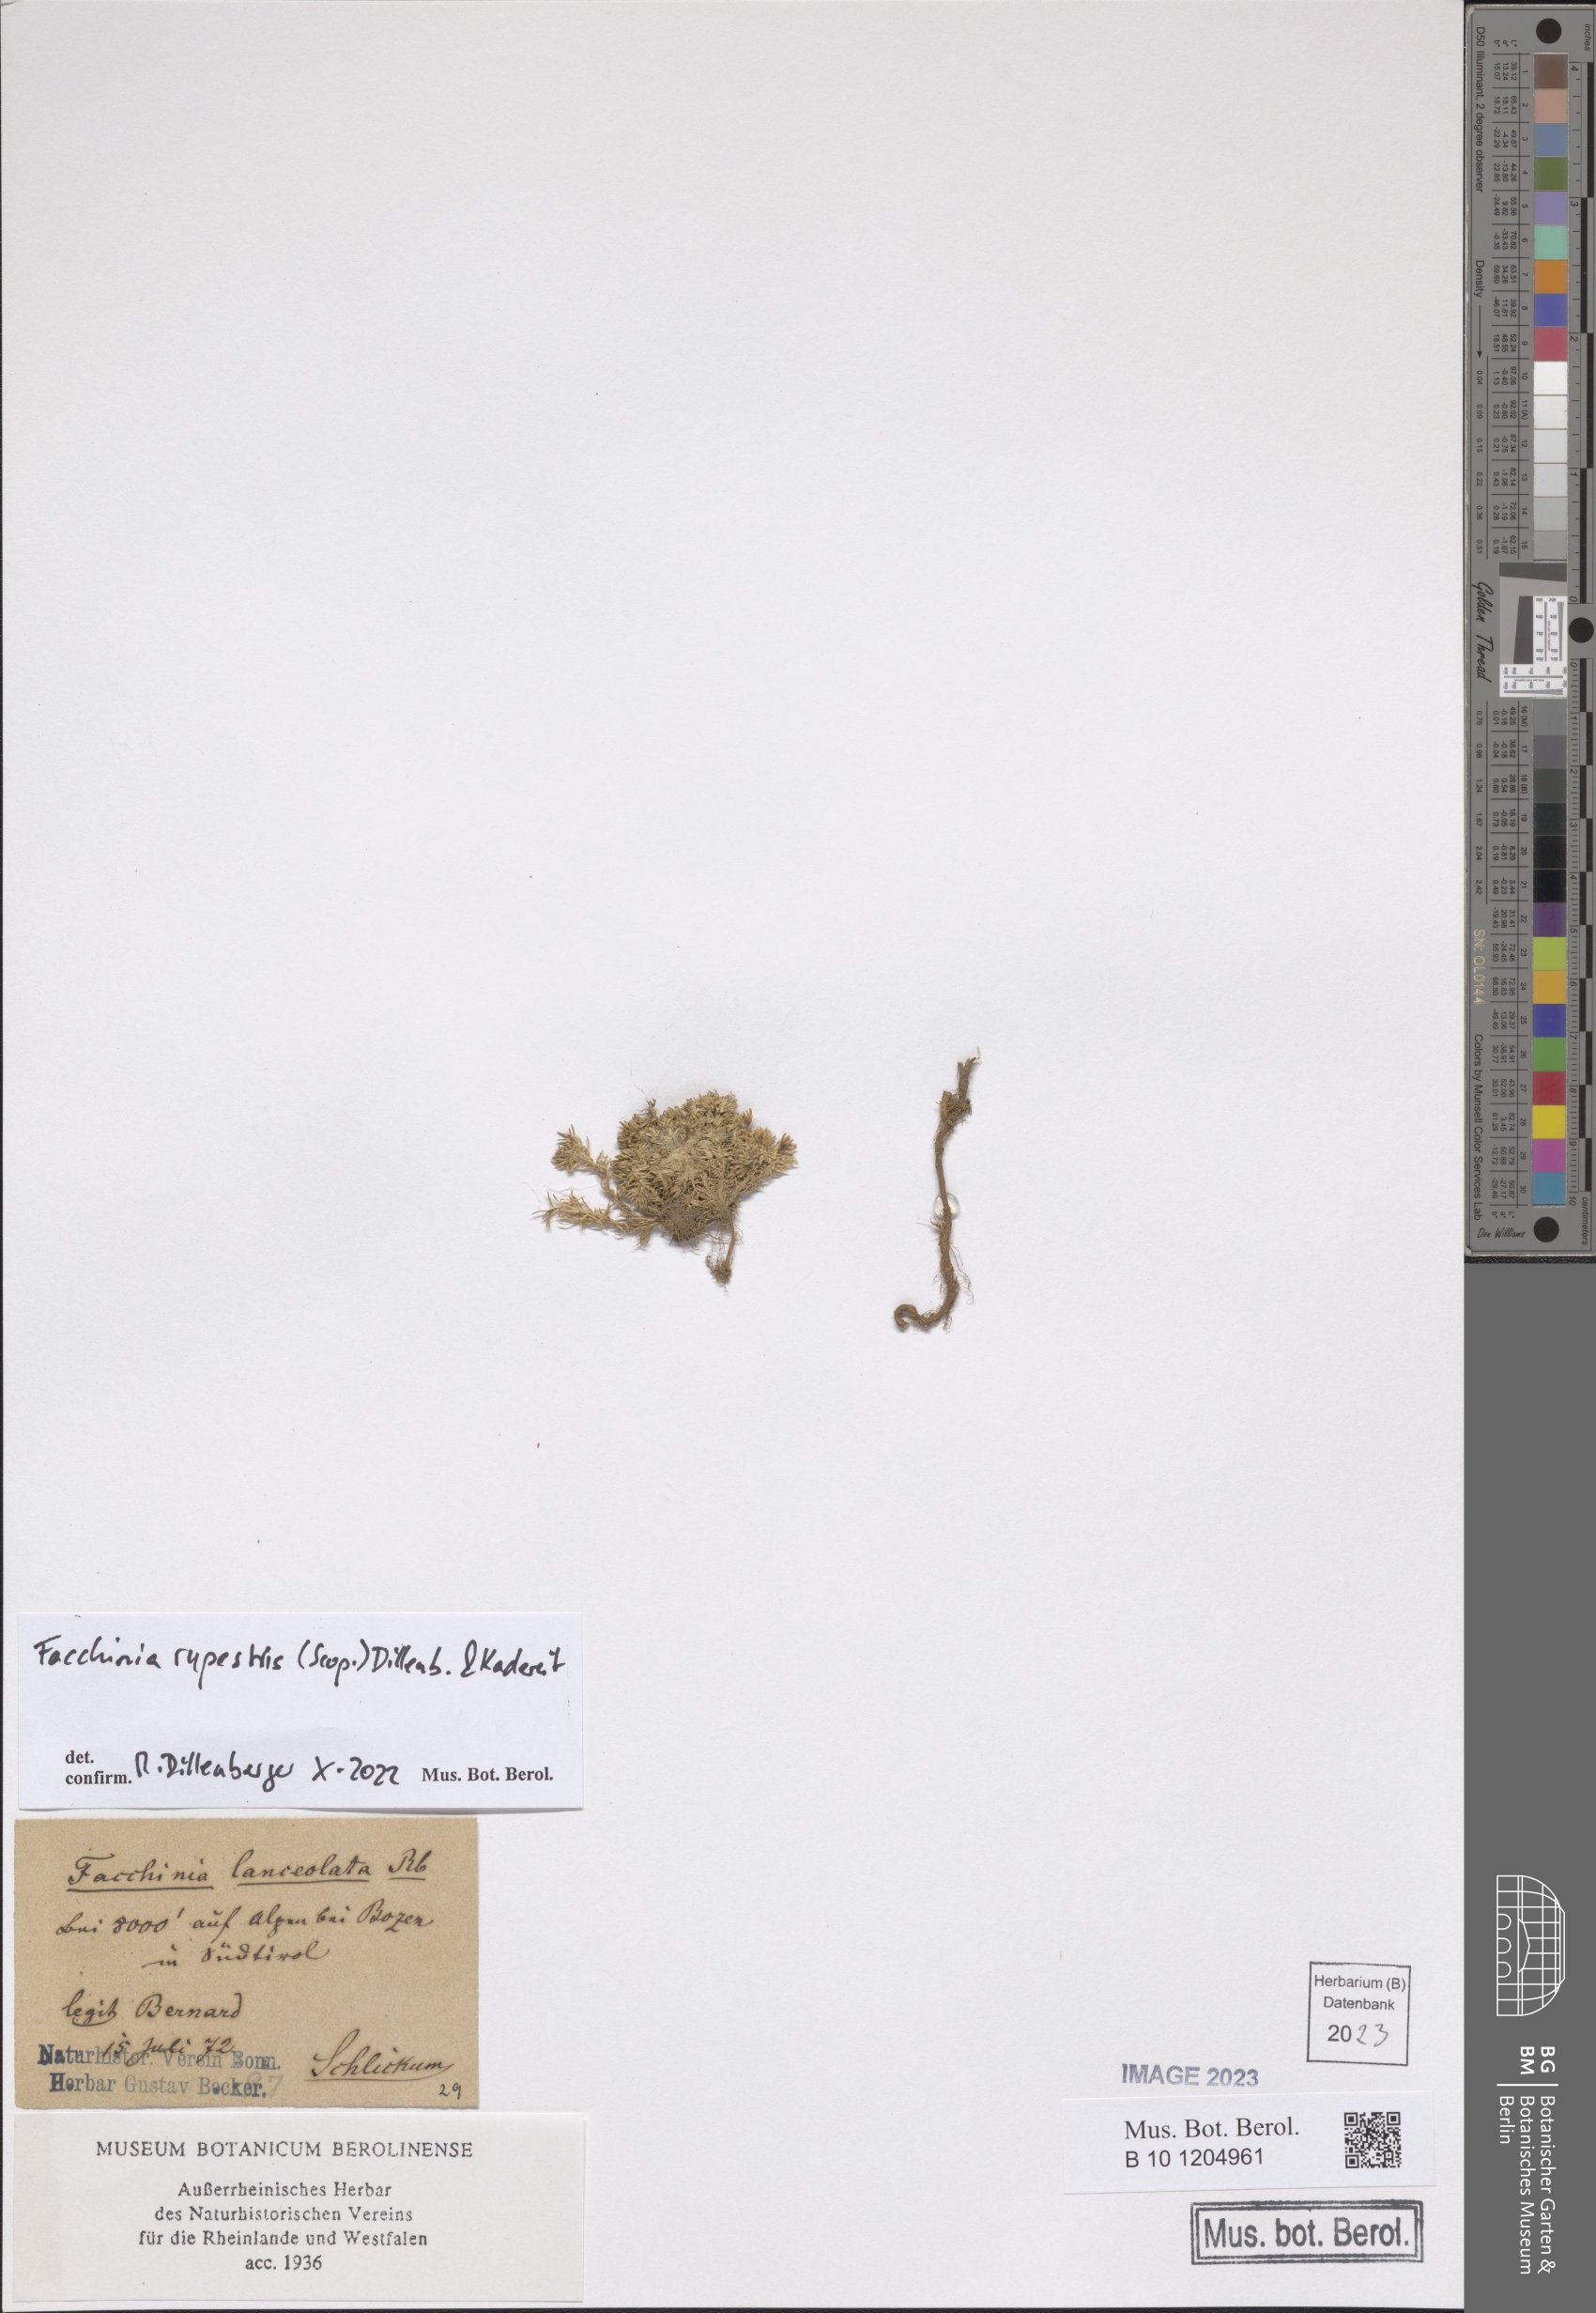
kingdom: Plantae
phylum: Tracheophyta
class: Magnoliopsida
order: Caryophyllales
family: Caryophyllaceae
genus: Facchinia
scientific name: Facchinia rupestris
